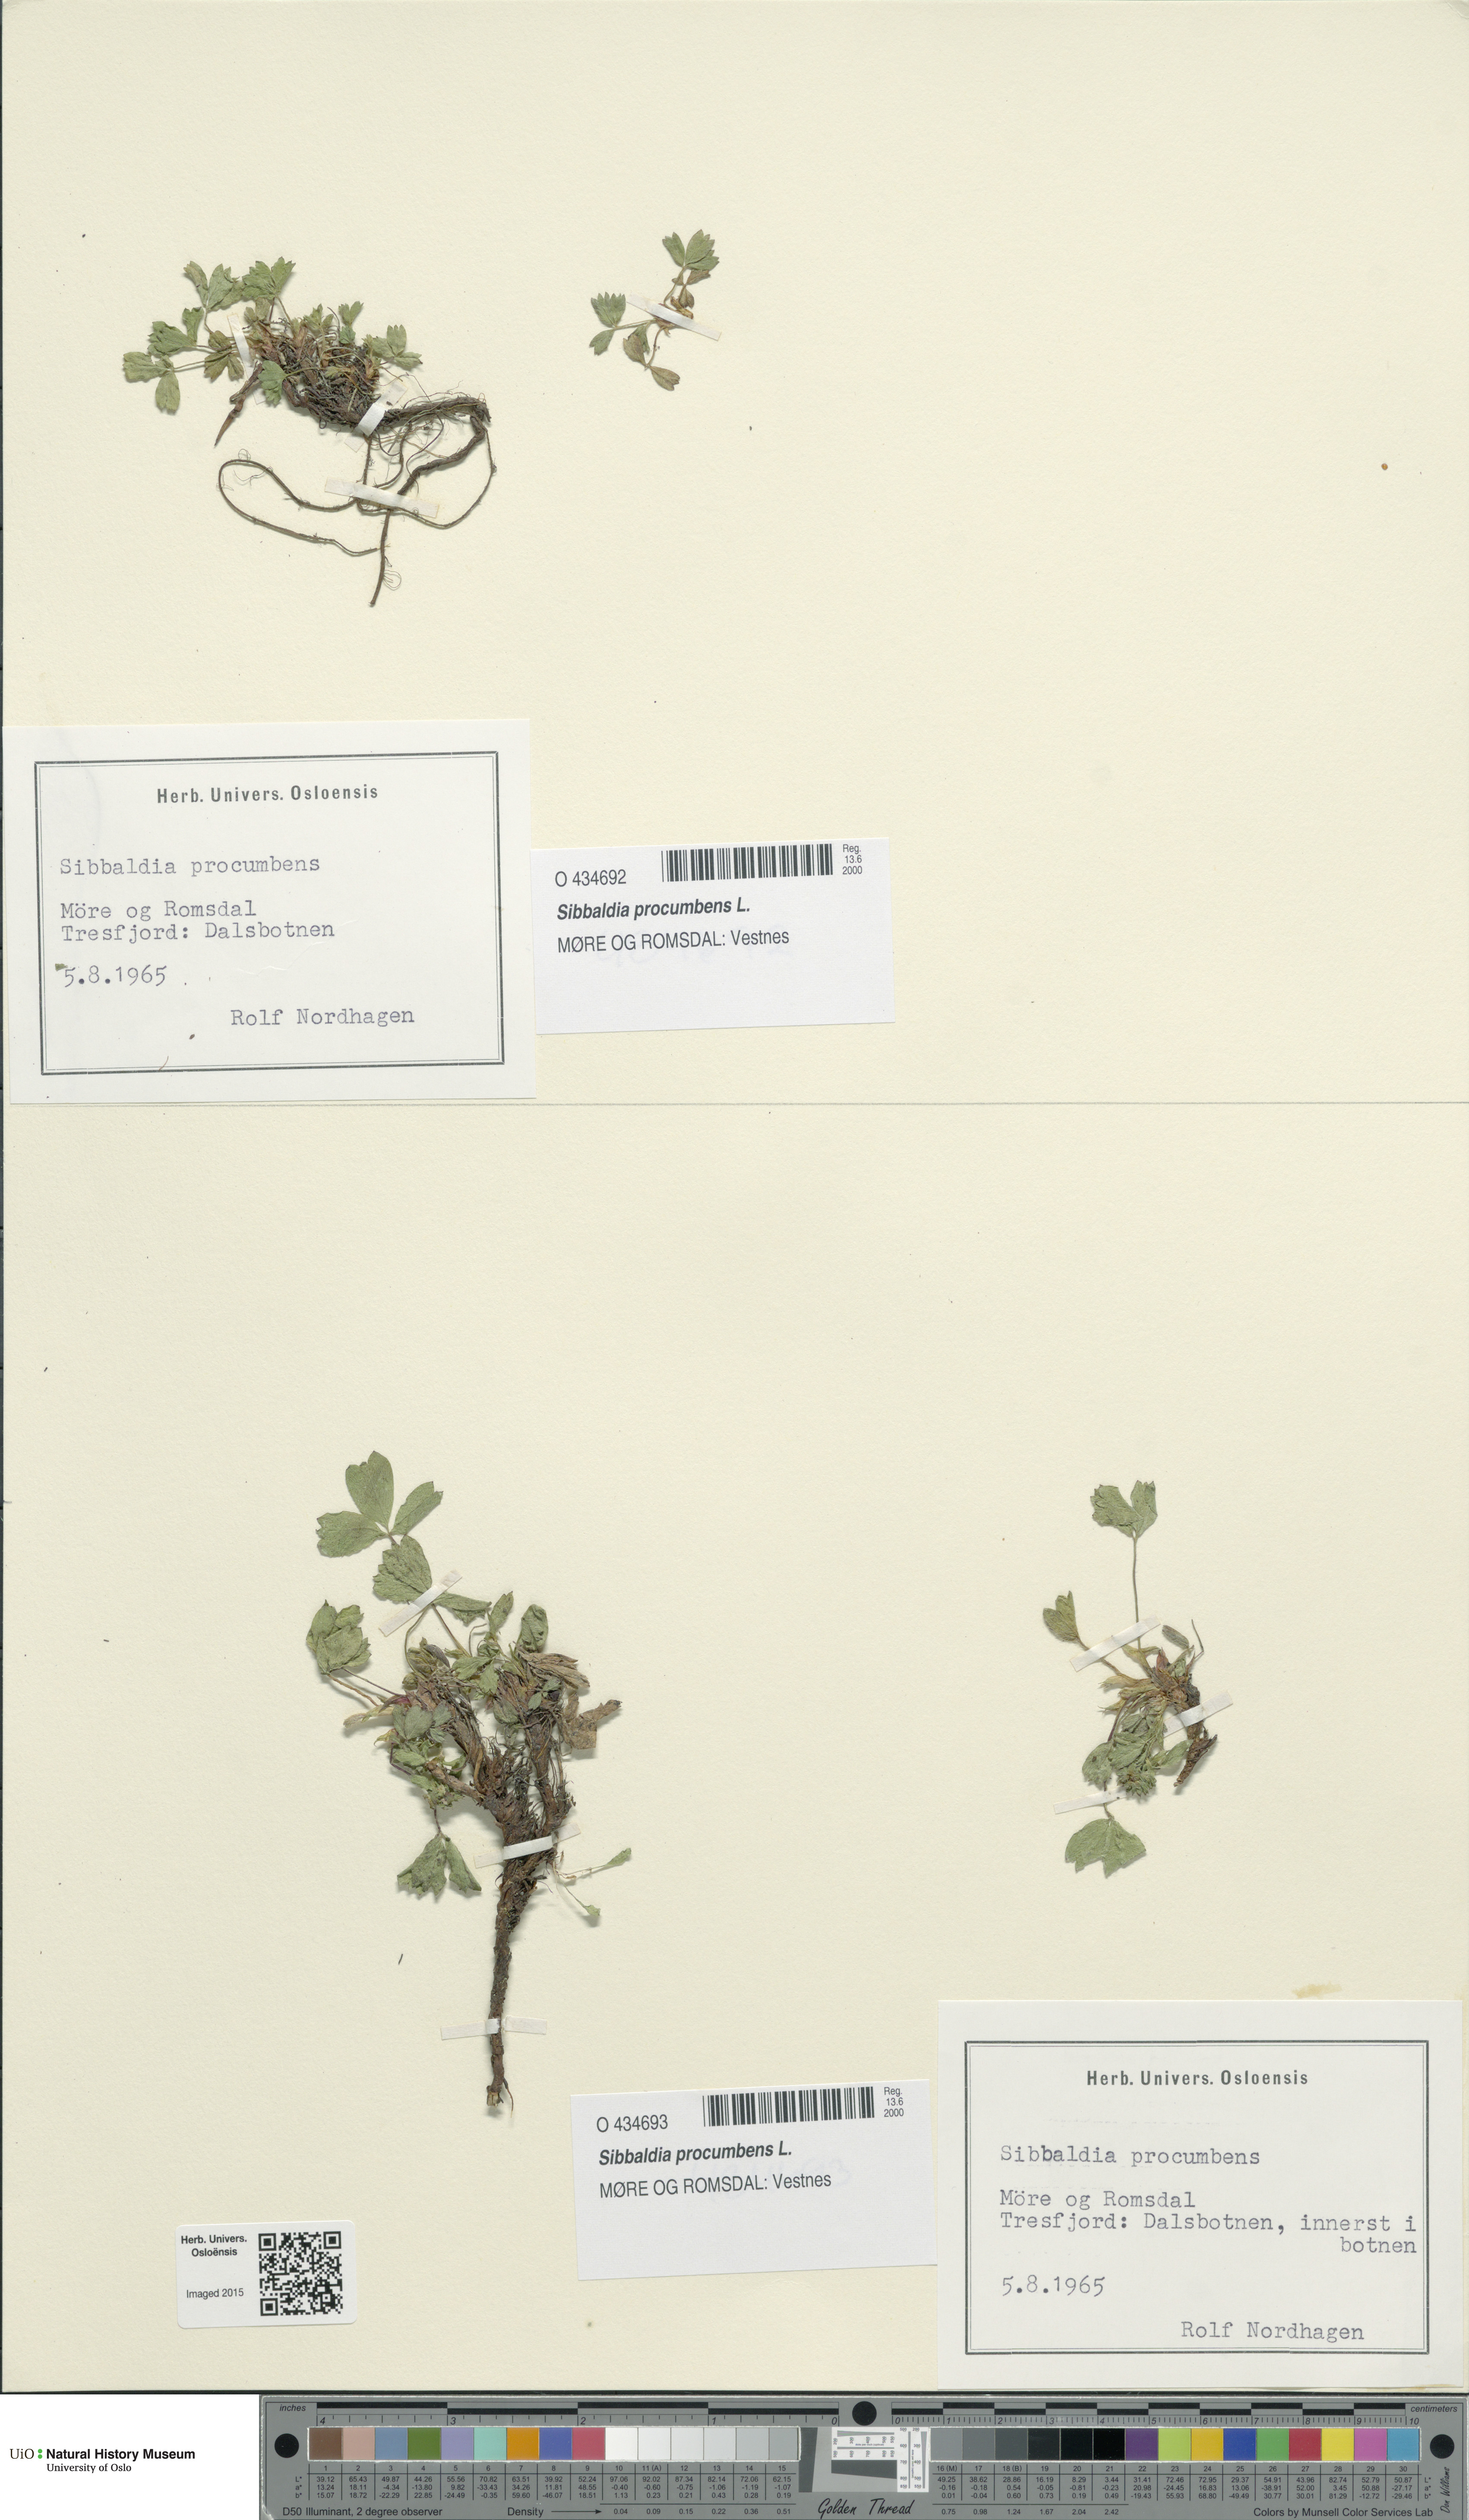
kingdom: Plantae
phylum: Tracheophyta
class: Magnoliopsida
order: Rosales
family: Rosaceae
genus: Sibbaldia
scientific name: Sibbaldia procumbens
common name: Creeping sibbaldia
